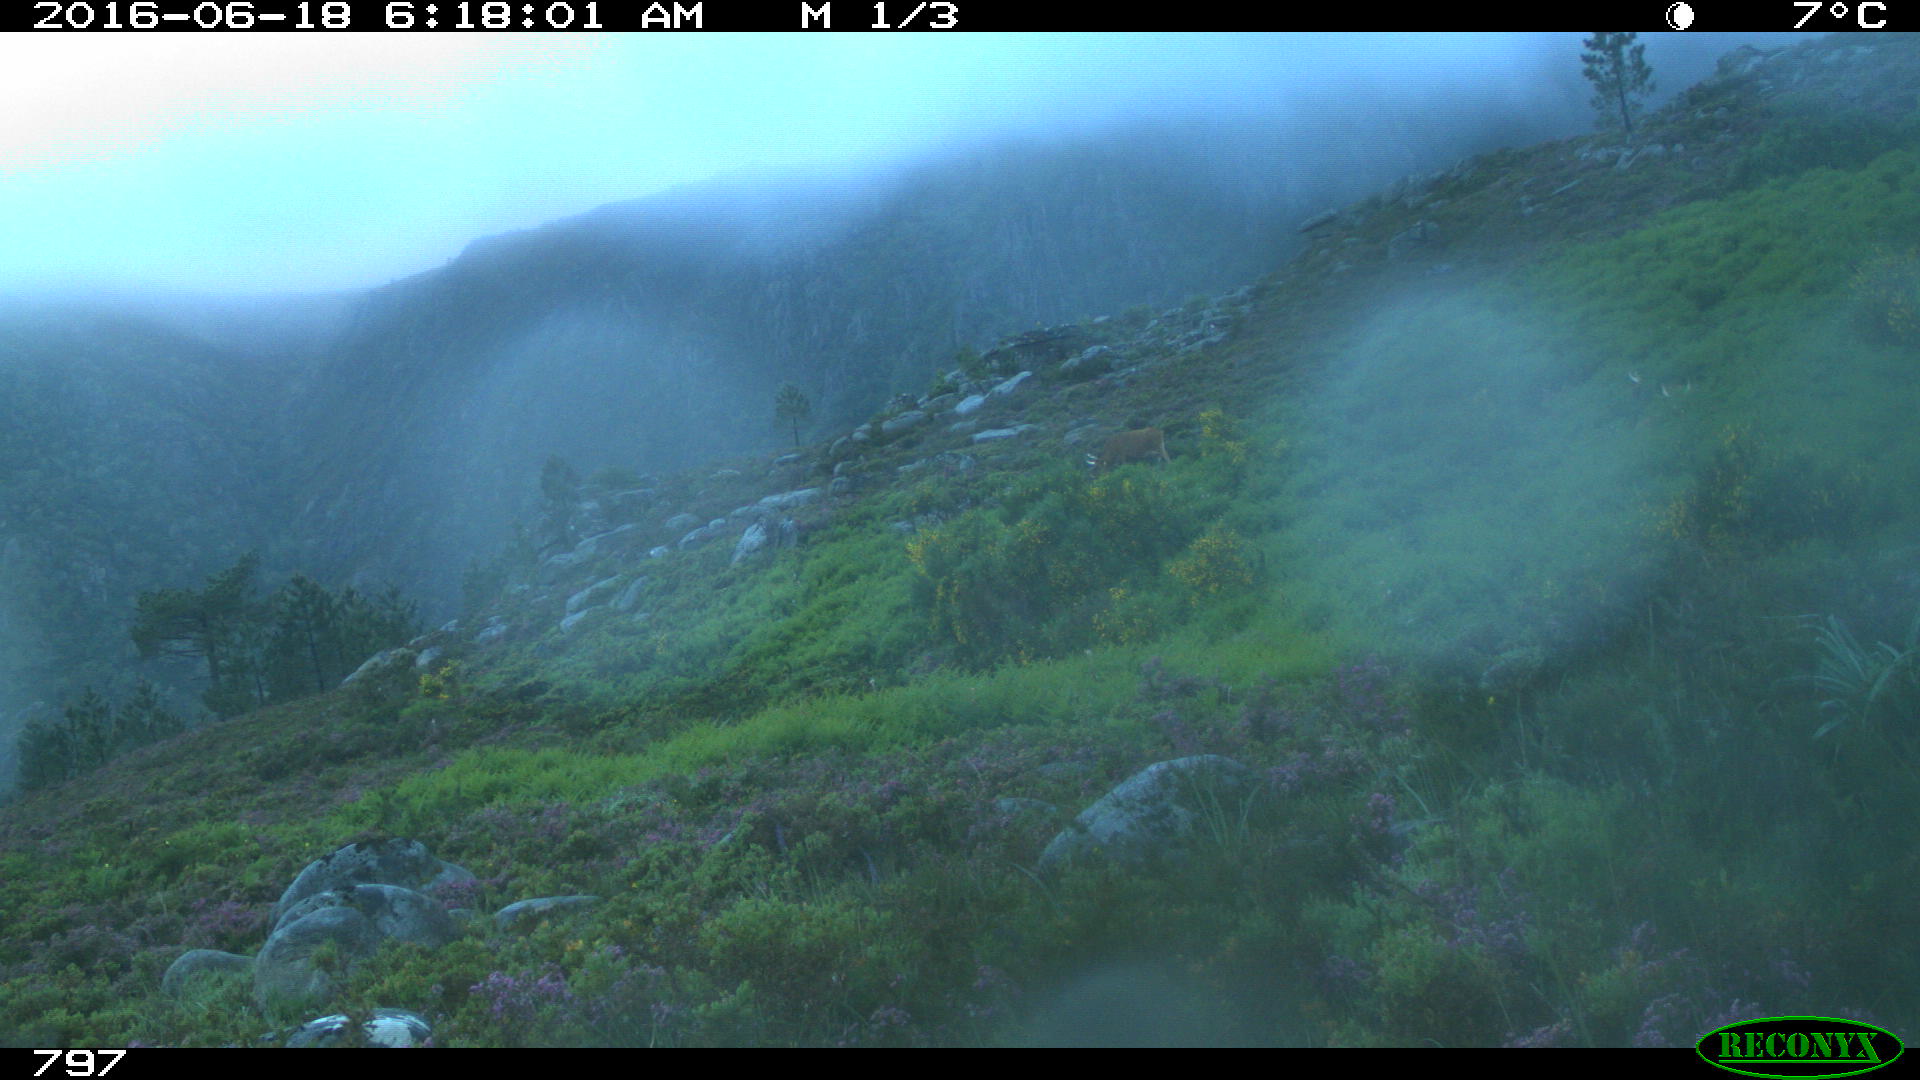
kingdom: Animalia
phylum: Chordata
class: Mammalia
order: Artiodactyla
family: Bovidae
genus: Bos
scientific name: Bos taurus
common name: Domesticated cattle
